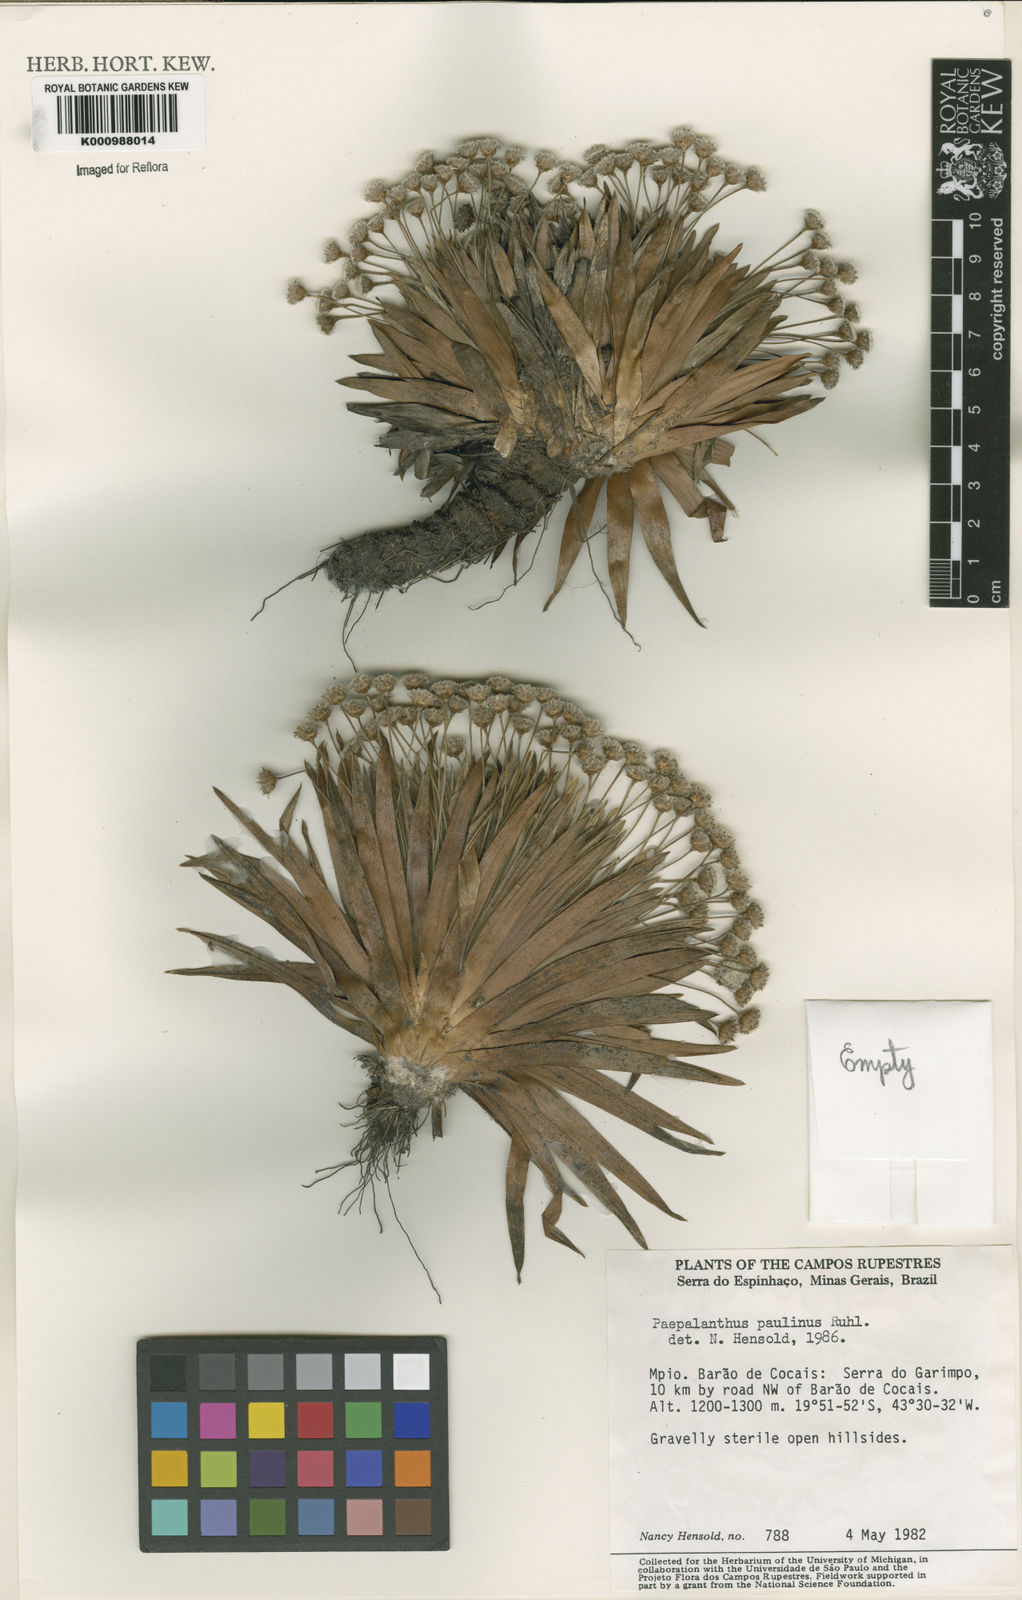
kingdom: Plantae
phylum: Tracheophyta
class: Liliopsida
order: Poales
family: Eriocaulaceae
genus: Paepalanthus
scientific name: Paepalanthus paulinus
